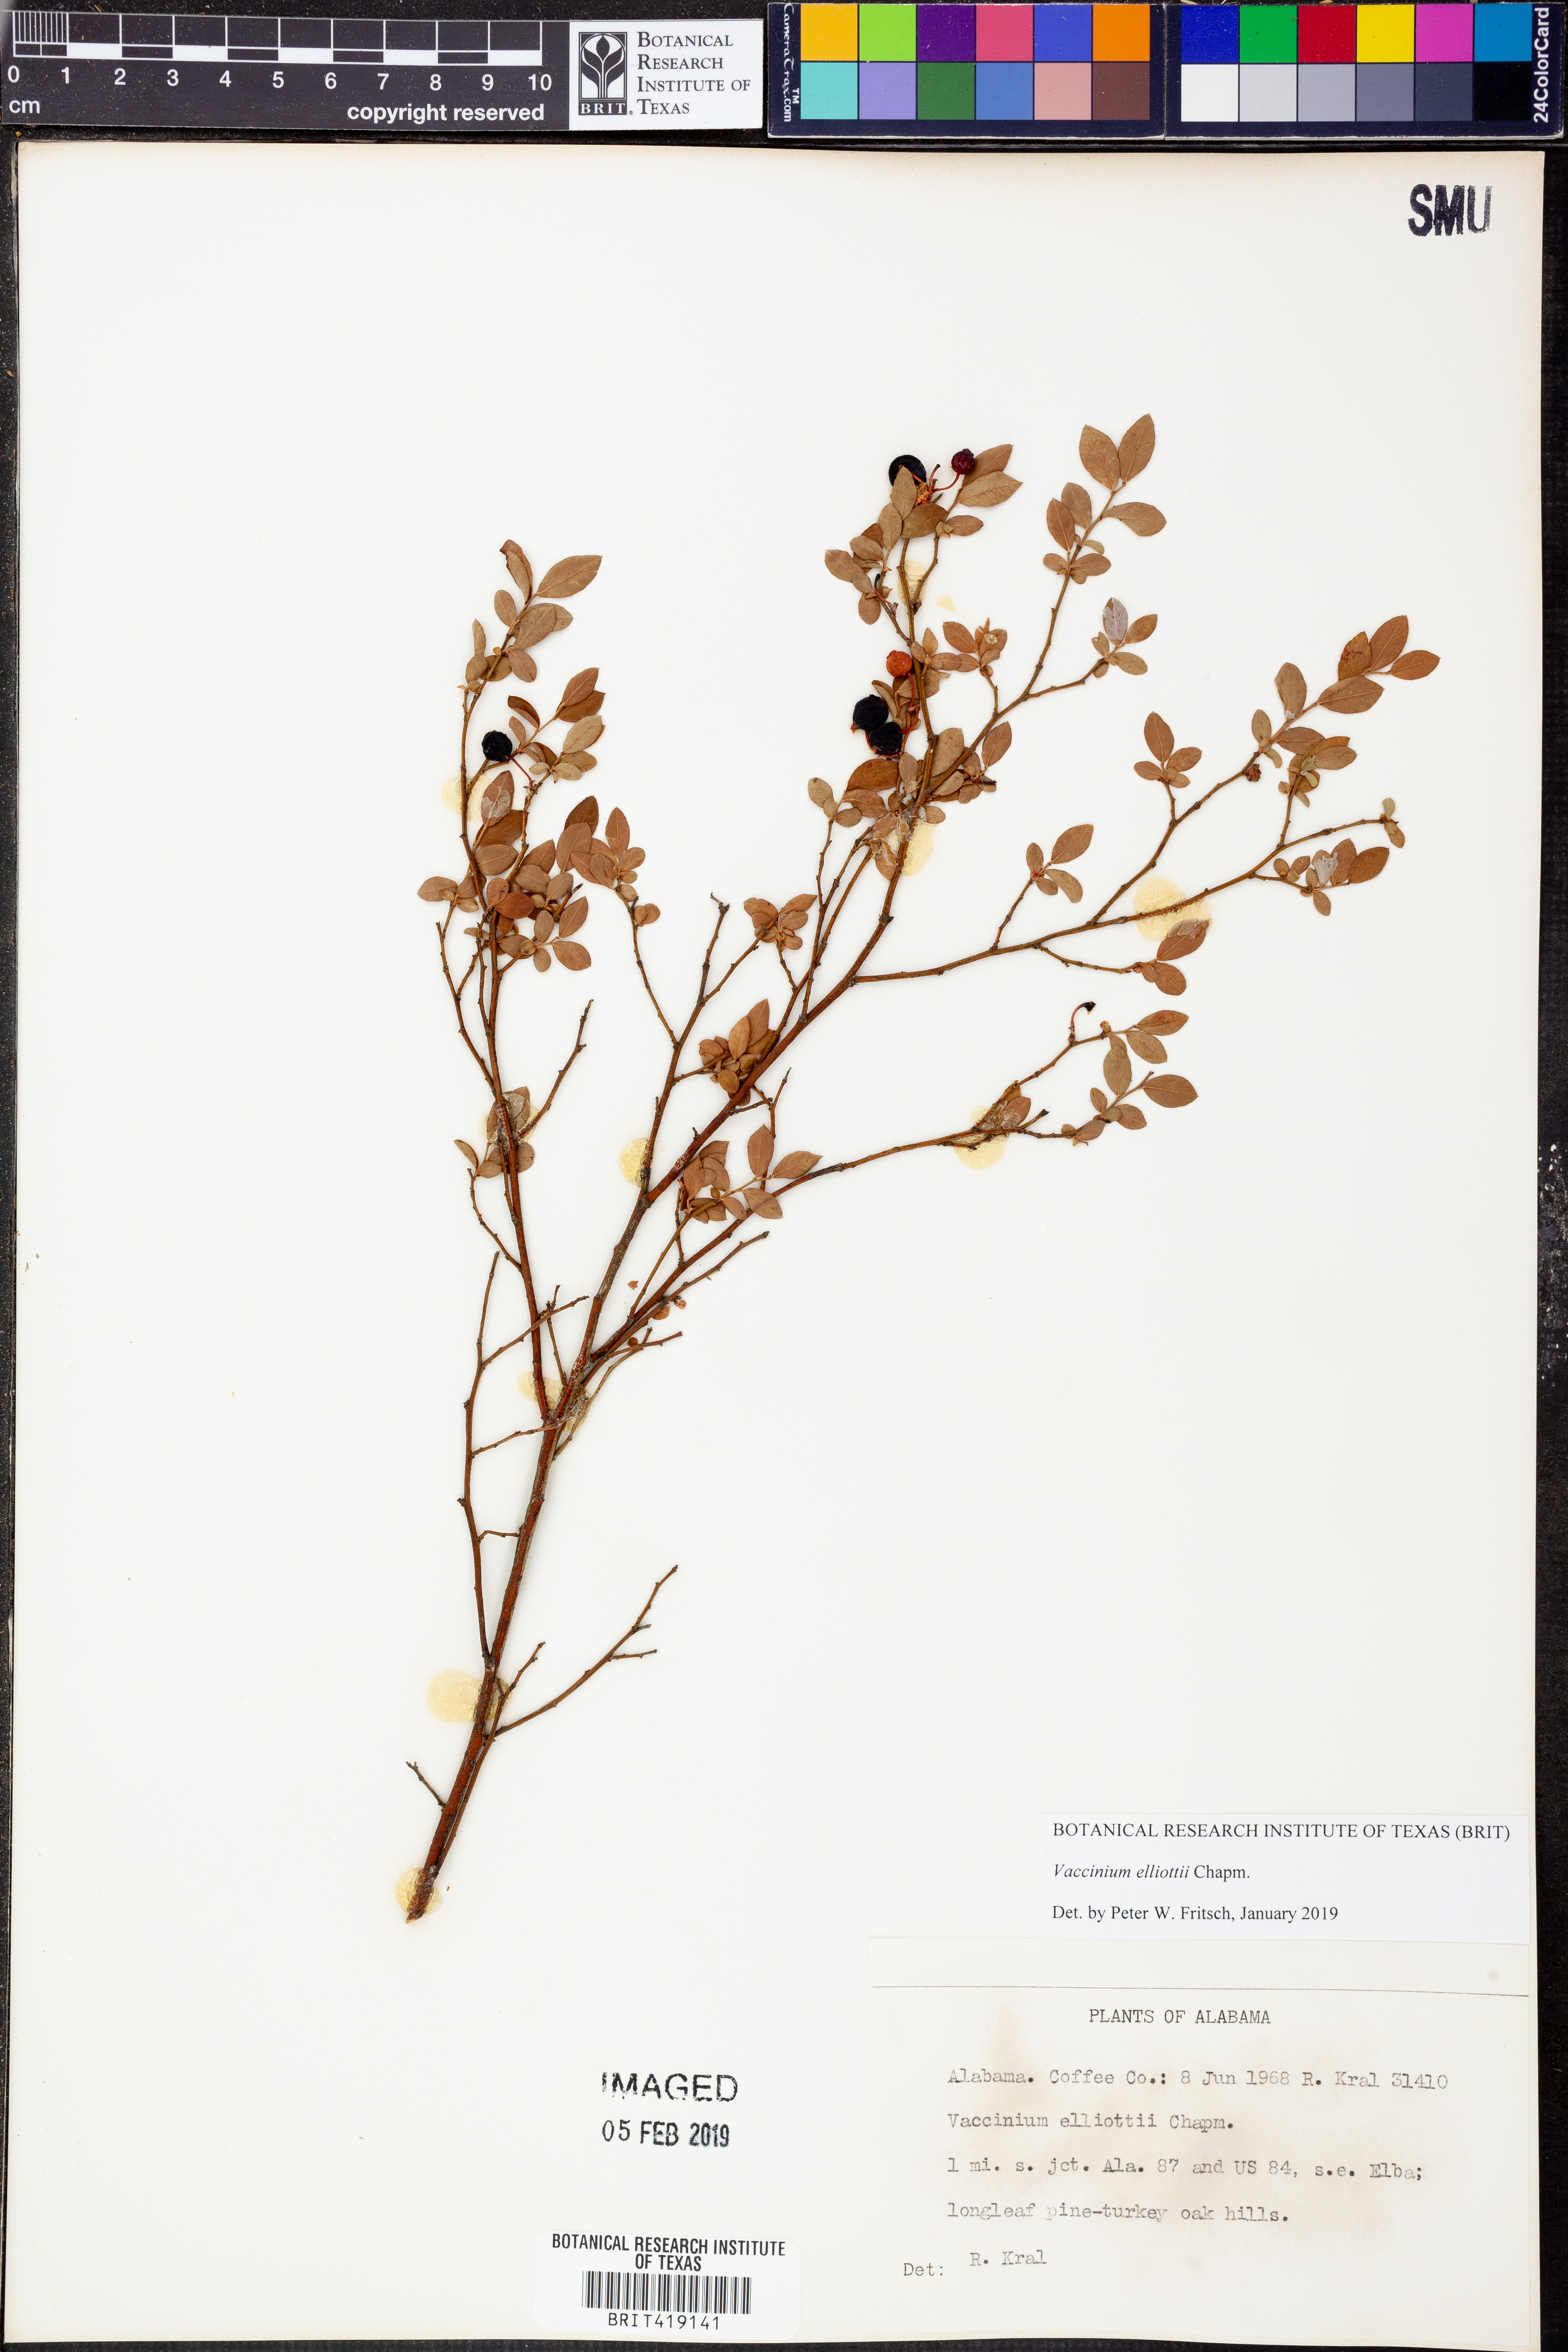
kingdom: Plantae
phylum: Tracheophyta
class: Magnoliopsida
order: Ericales
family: Ericaceae
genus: Vaccinium
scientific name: Vaccinium corymbosum
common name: Blueberry
